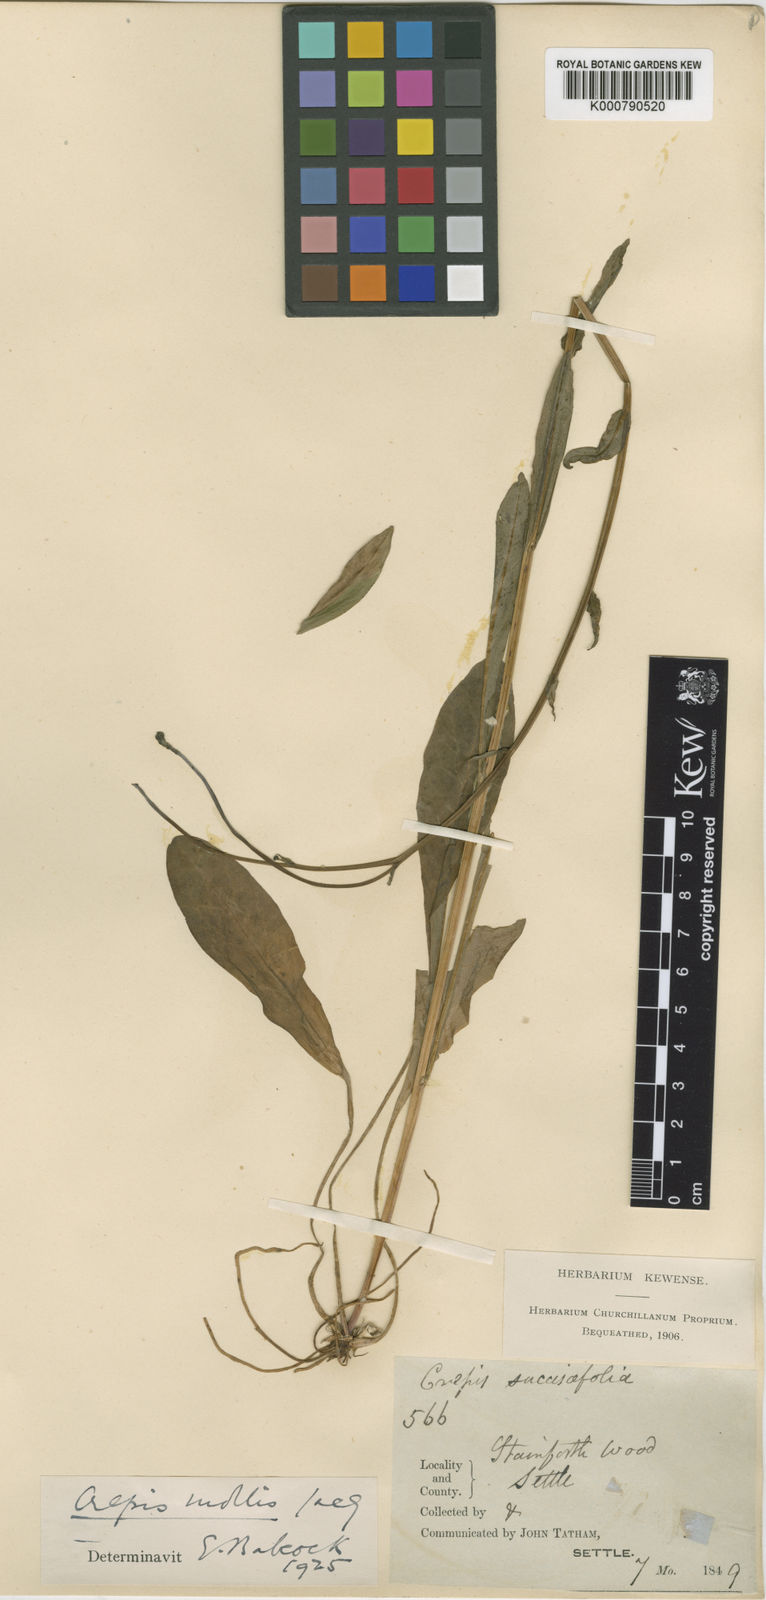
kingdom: Plantae
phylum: Tracheophyta
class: Magnoliopsida
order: Asterales
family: Asteraceae
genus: Crepis
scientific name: Crepis mollis
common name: Northern hawk's-beard
